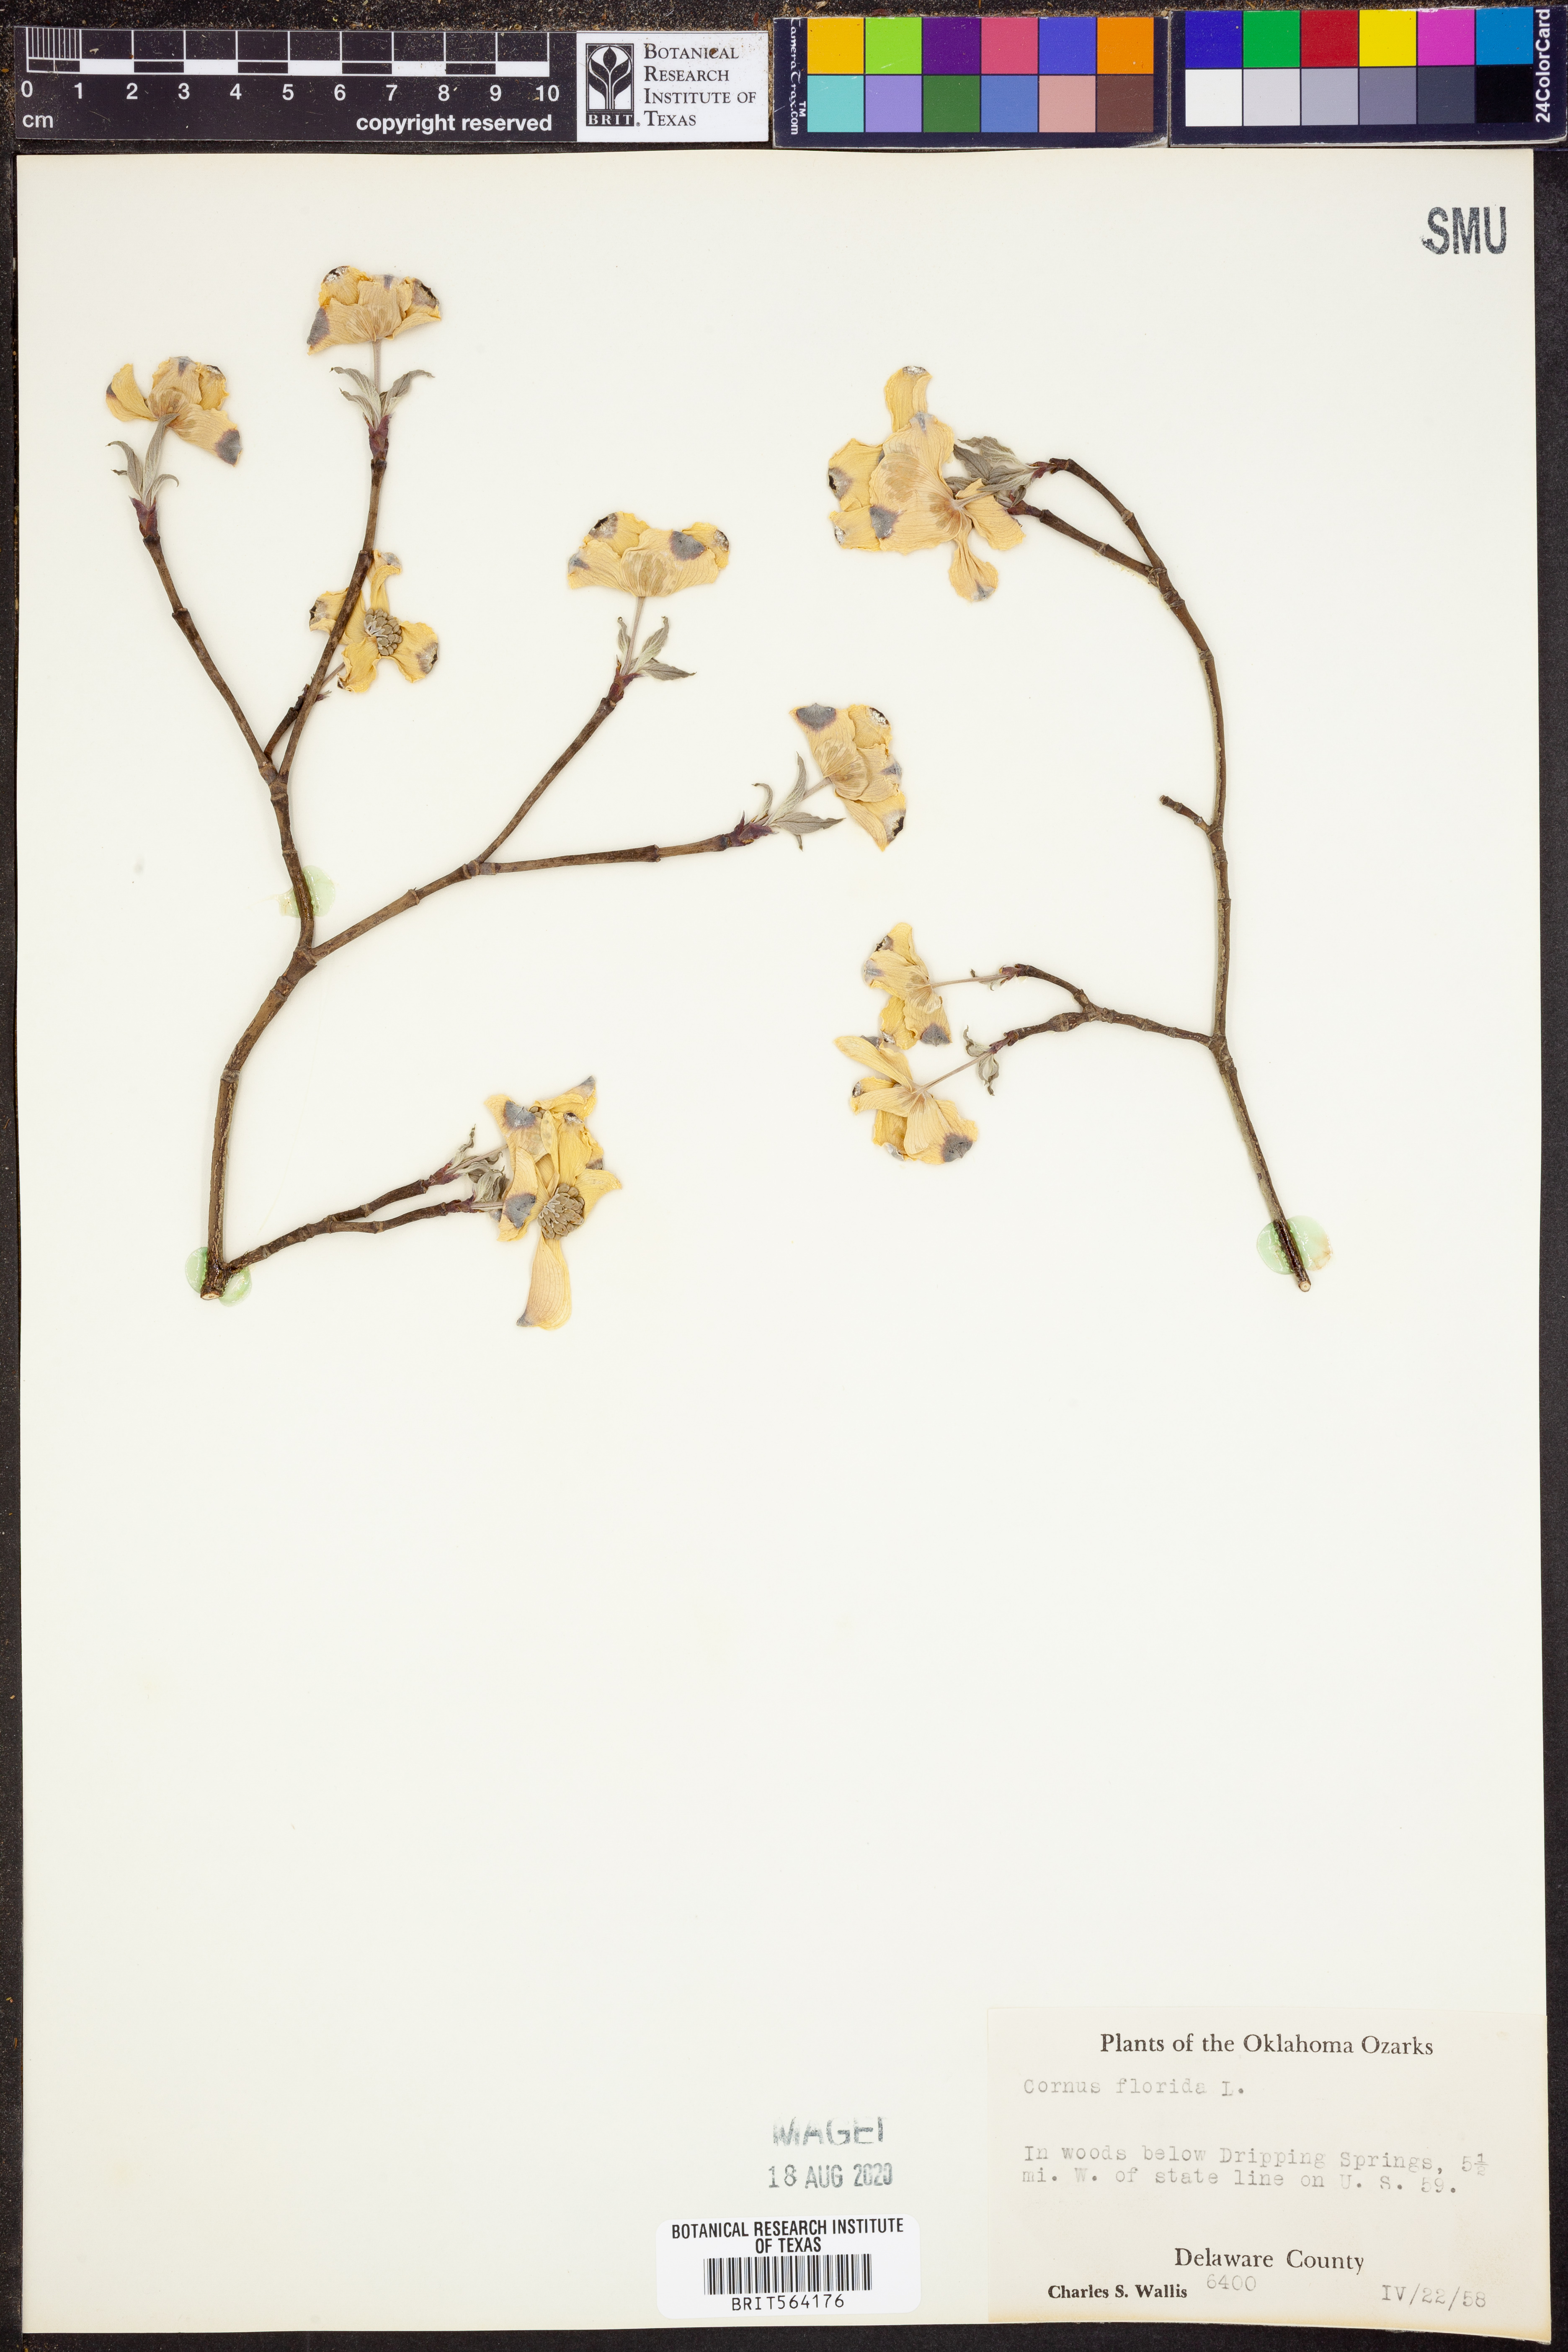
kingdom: Plantae
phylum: Tracheophyta
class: Magnoliopsida
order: Cornales
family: Cornaceae
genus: Cornus
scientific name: Cornus florida
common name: Flowering dogwood
